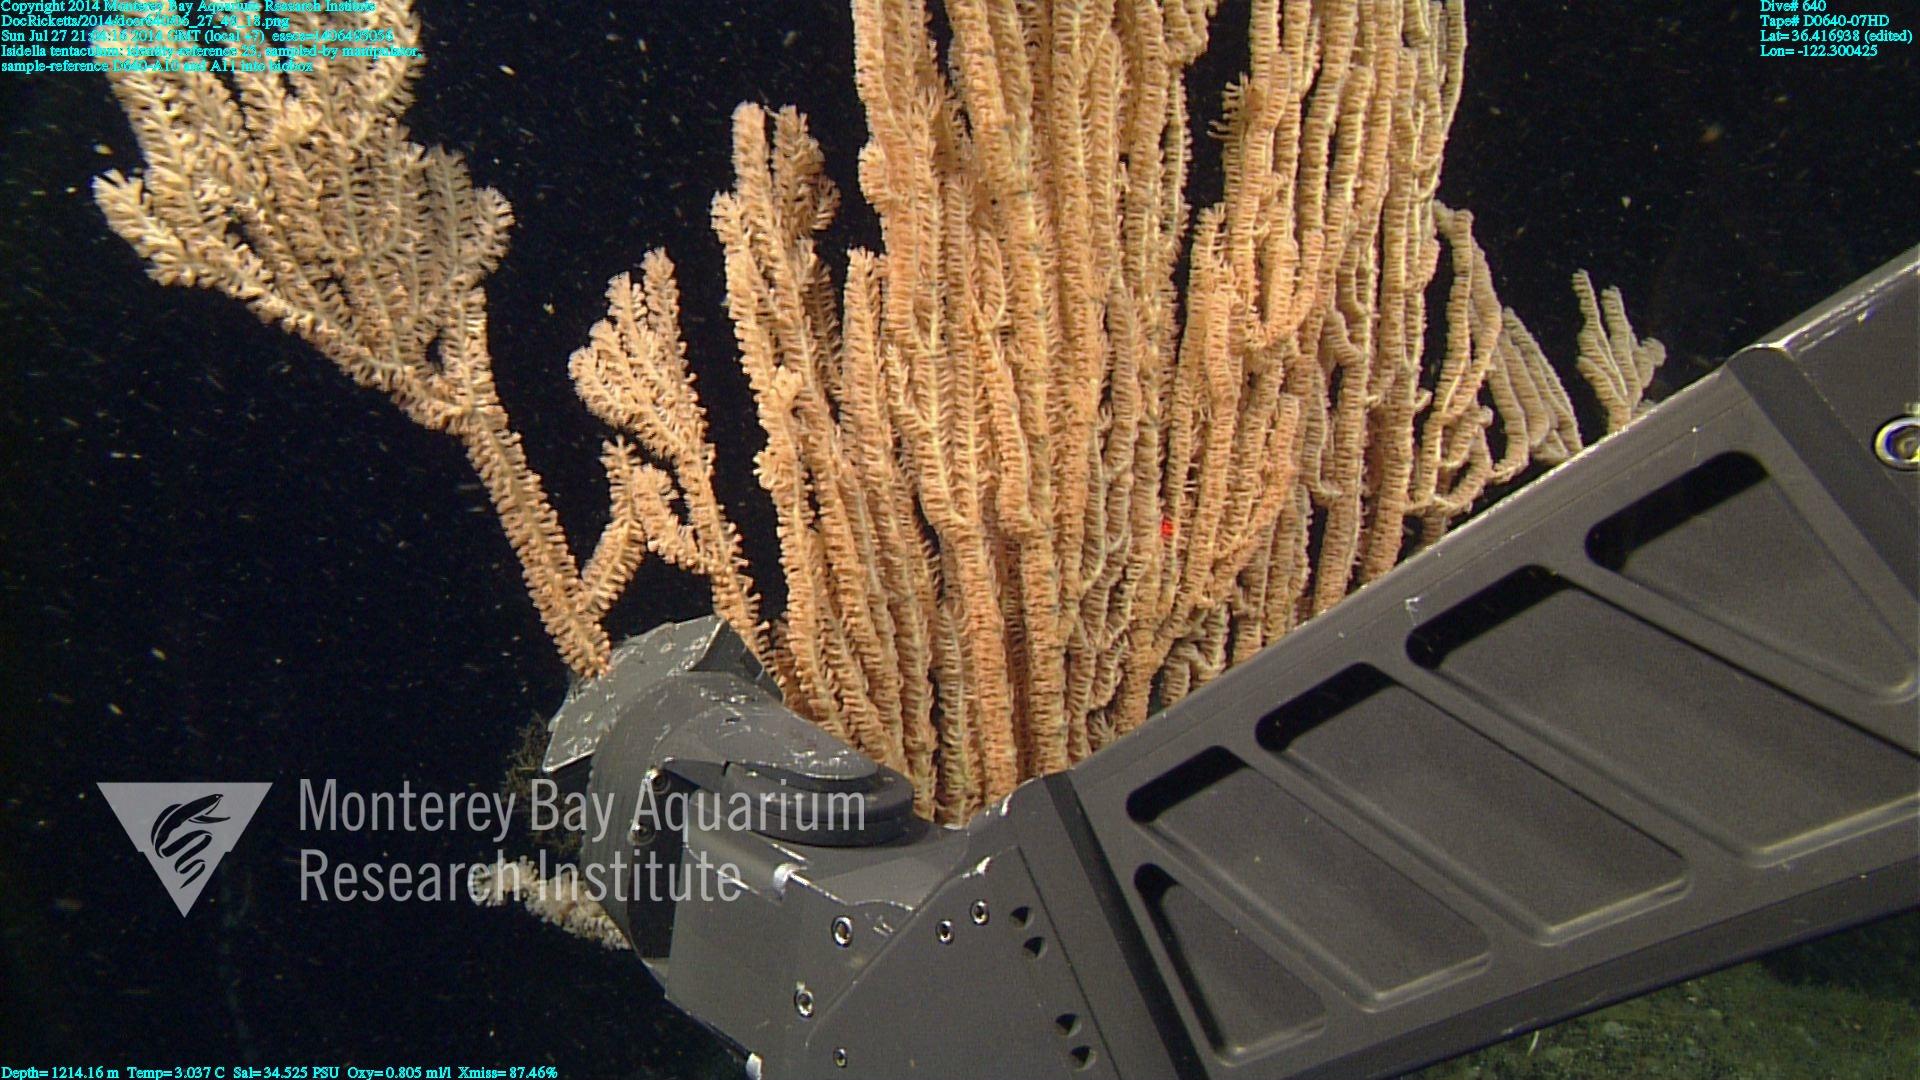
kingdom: Animalia
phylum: Cnidaria
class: Anthozoa
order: Scleralcyonacea
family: Keratoisididae
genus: Isidella
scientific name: Isidella tentaculum
